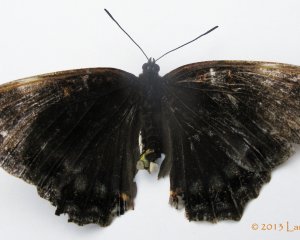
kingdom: Animalia
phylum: Arthropoda
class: Insecta
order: Lepidoptera
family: Nymphalidae
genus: Limenitis
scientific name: Limenitis astyanax
